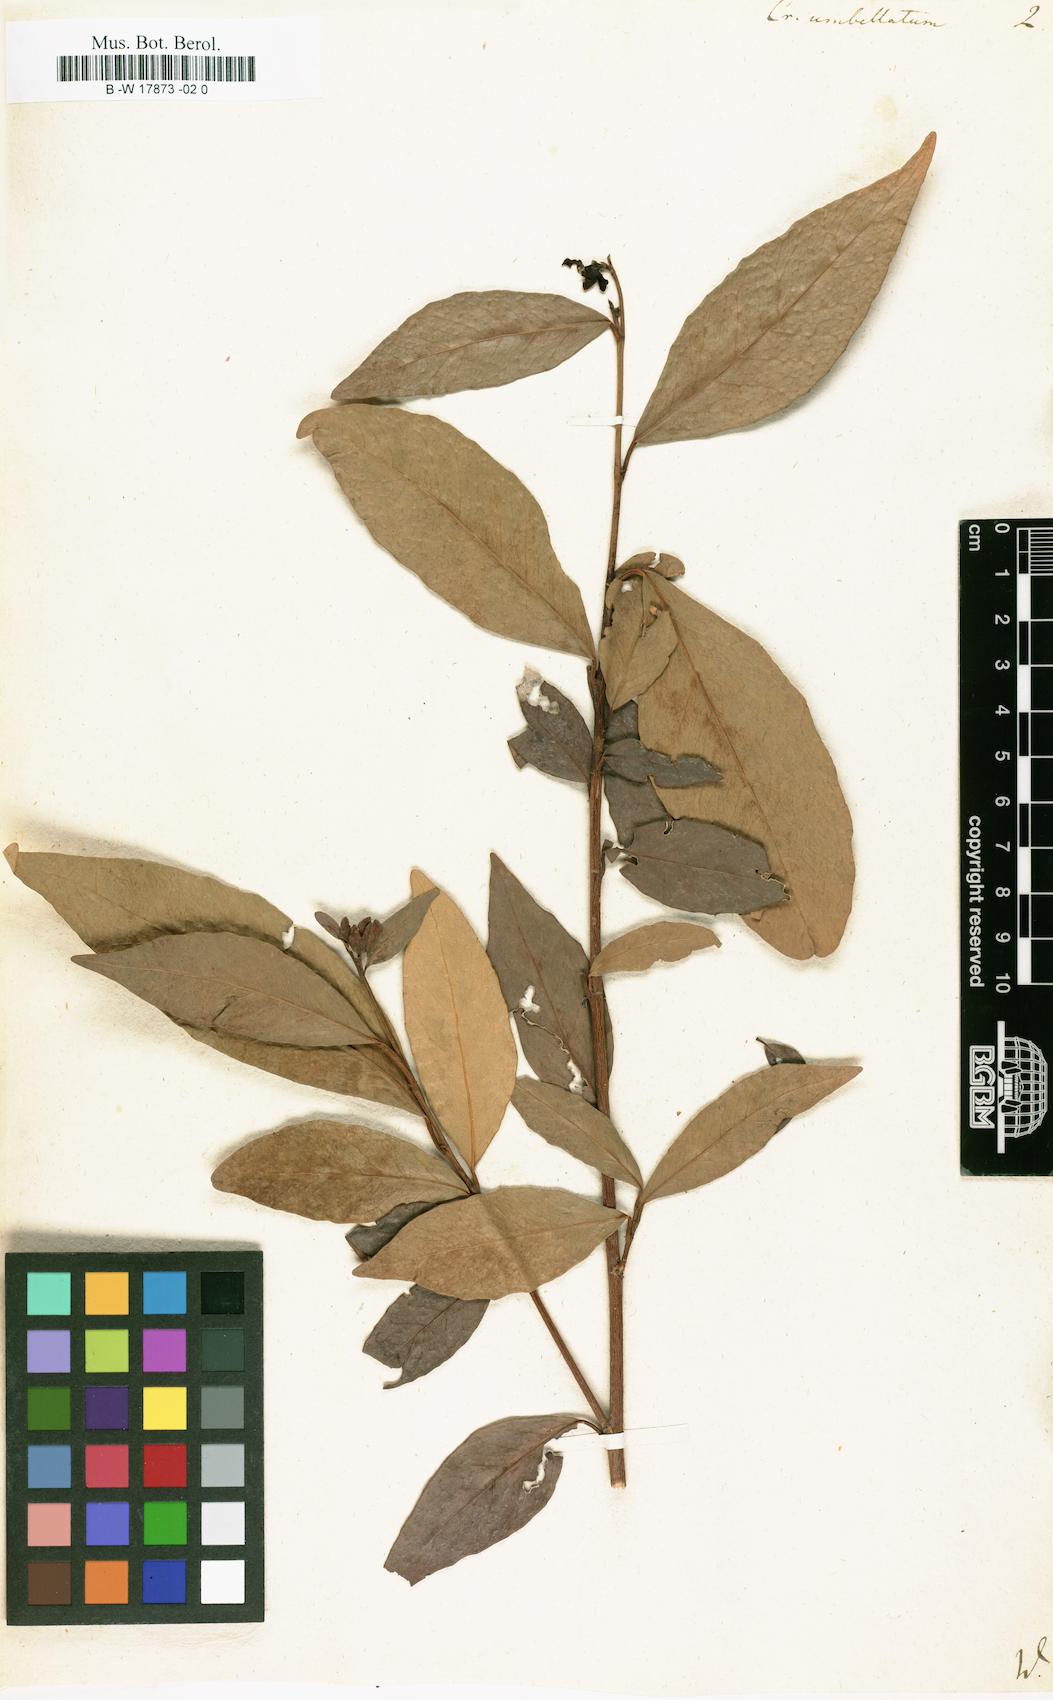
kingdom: Plantae
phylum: Tracheophyta
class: Magnoliopsida
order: Malpighiales
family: Euphorbiaceae
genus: Croton
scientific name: Croton umbellatus
